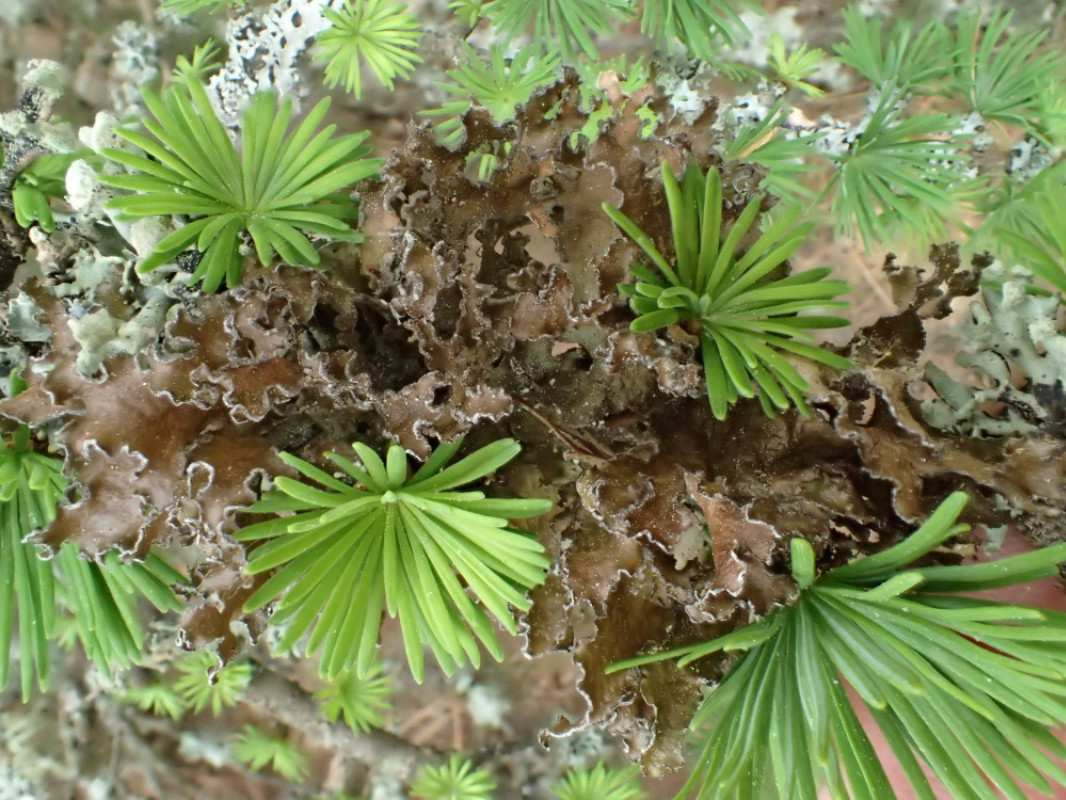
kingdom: Fungi
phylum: Ascomycota
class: Lecanoromycetes
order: Lecanorales
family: Parmeliaceae
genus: Nephromopsis
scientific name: Nephromopsis chlorophylla
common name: olivenbrun kruslav
